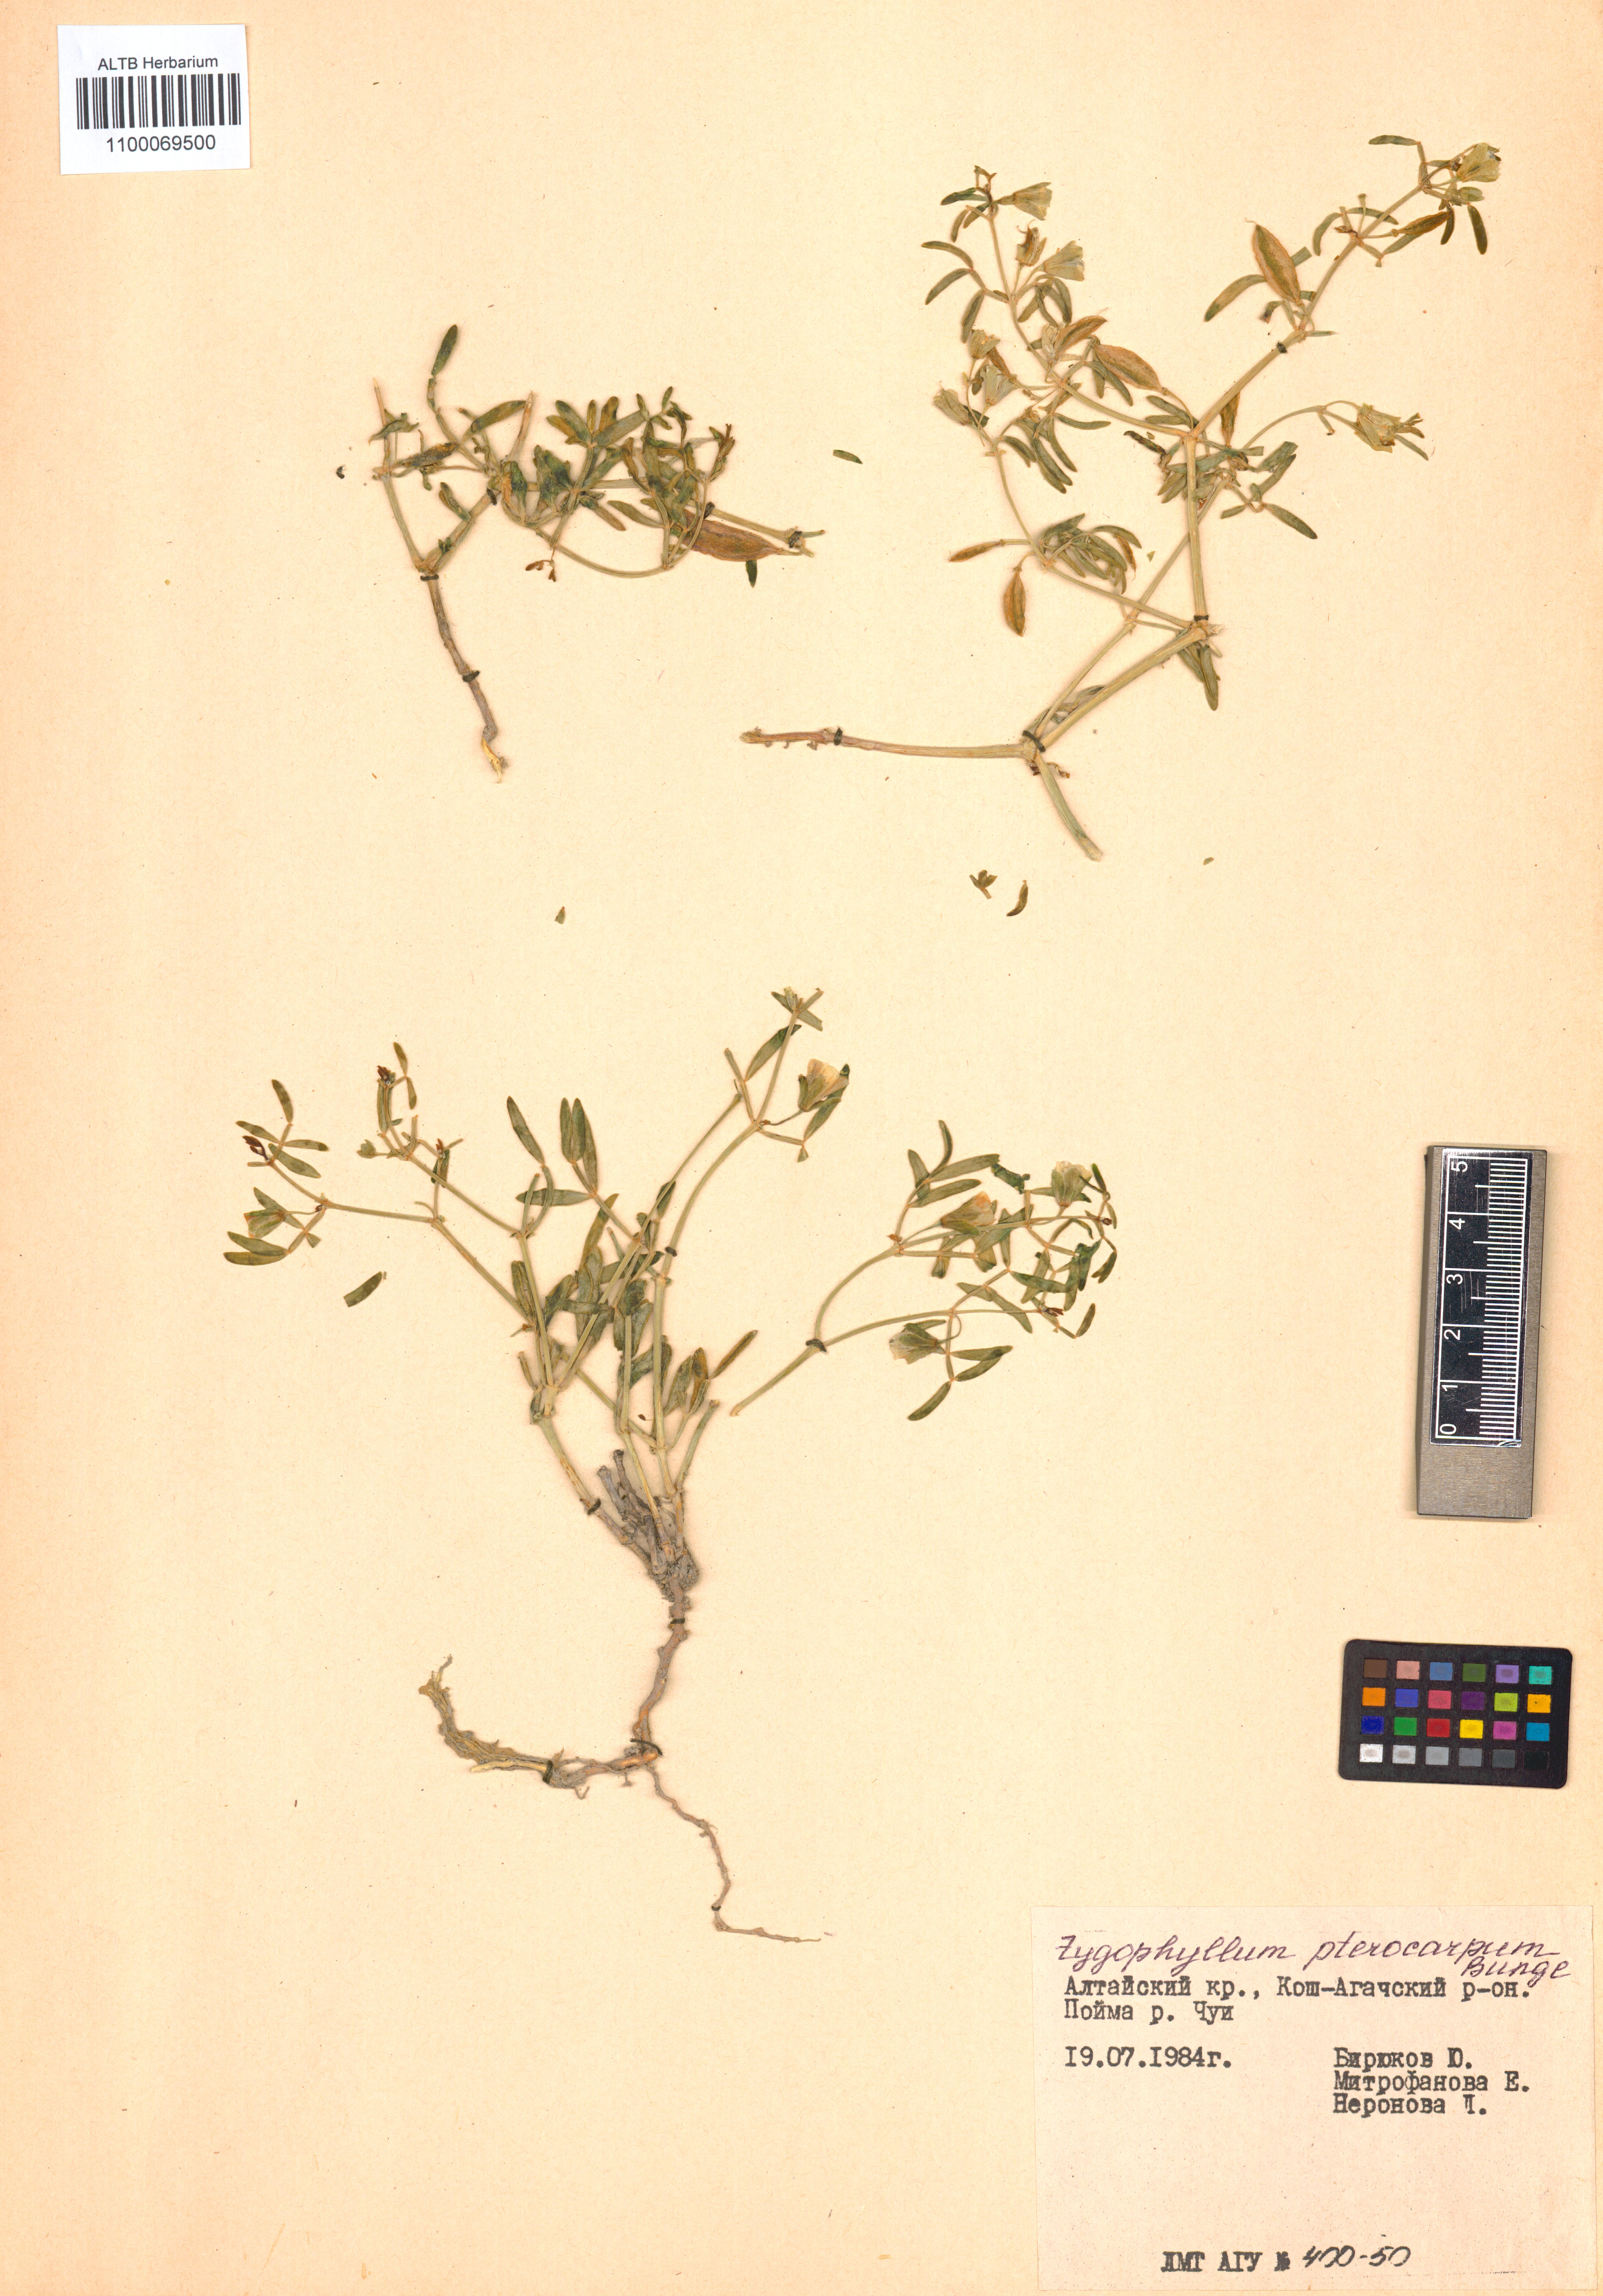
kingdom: Plantae
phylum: Tracheophyta
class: Magnoliopsida
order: Zygophyllales
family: Zygophyllaceae
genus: Zygophyllum
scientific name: Zygophyllum pterocarpum
